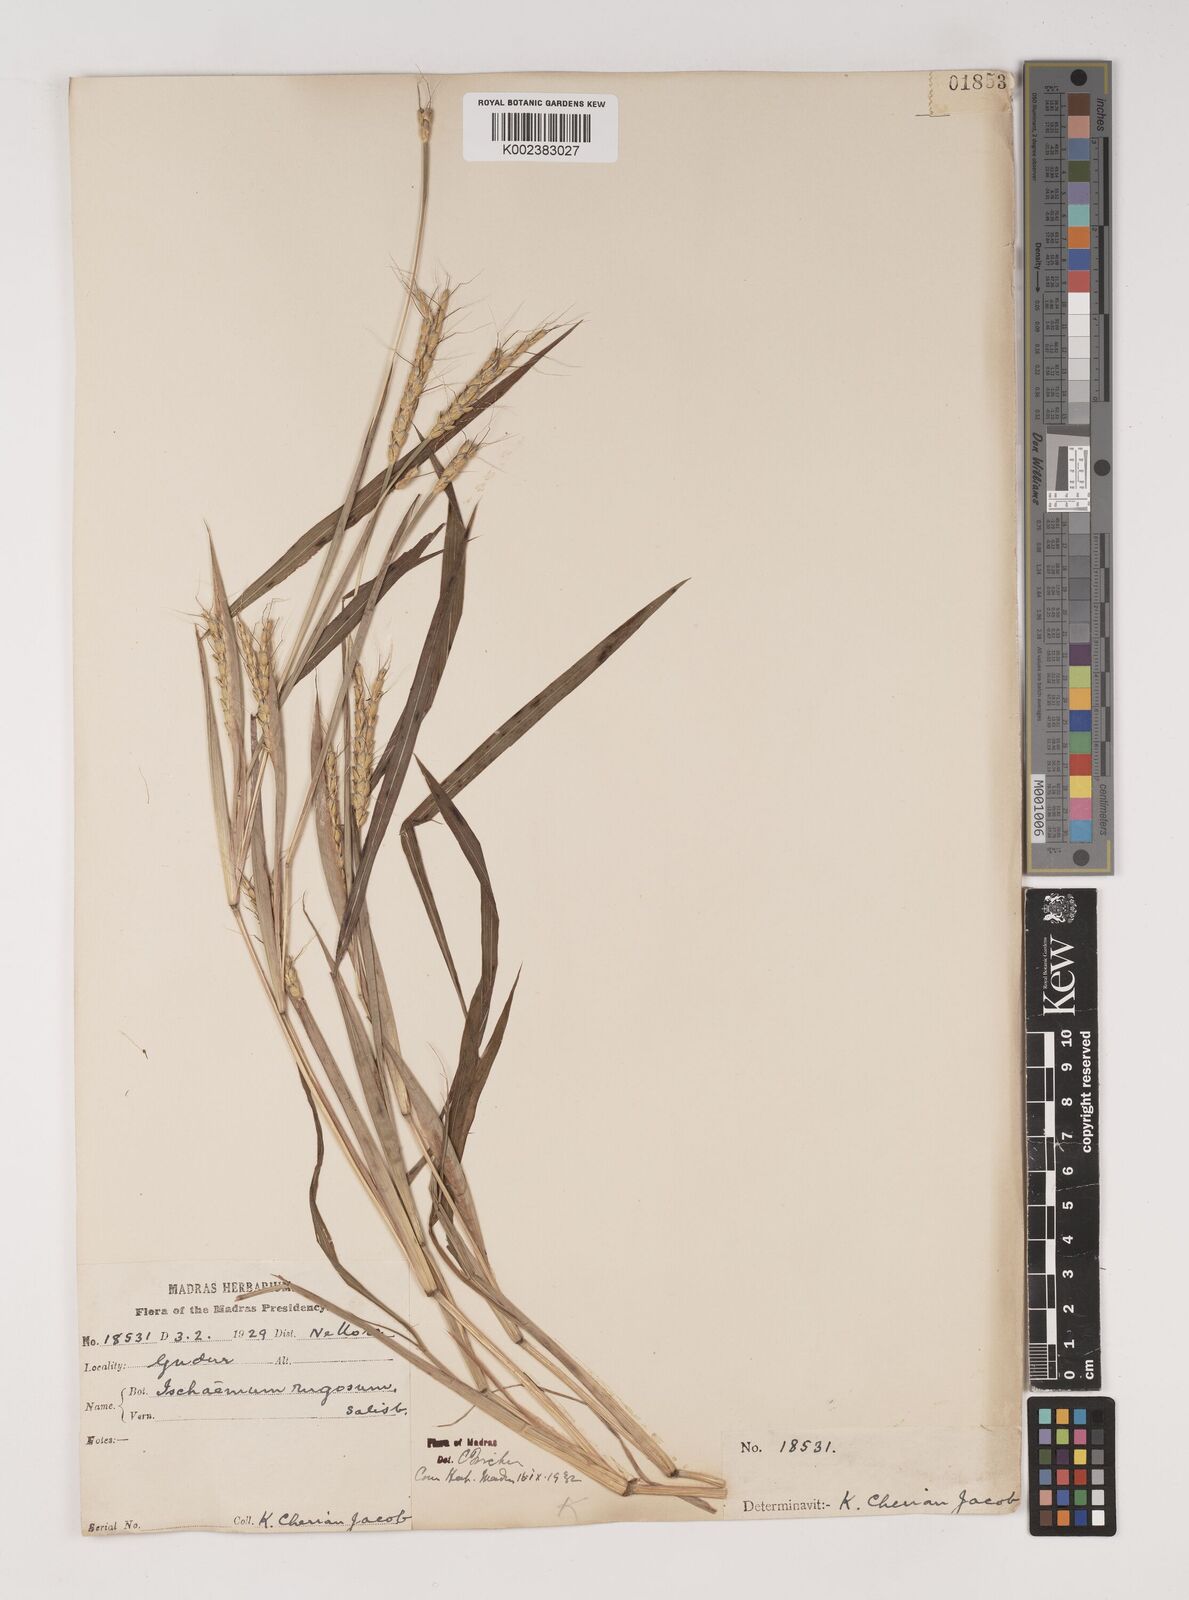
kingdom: Plantae
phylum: Tracheophyta
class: Liliopsida
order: Poales
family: Poaceae
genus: Ischaemum
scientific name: Ischaemum rugosum
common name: Saramatta grass
